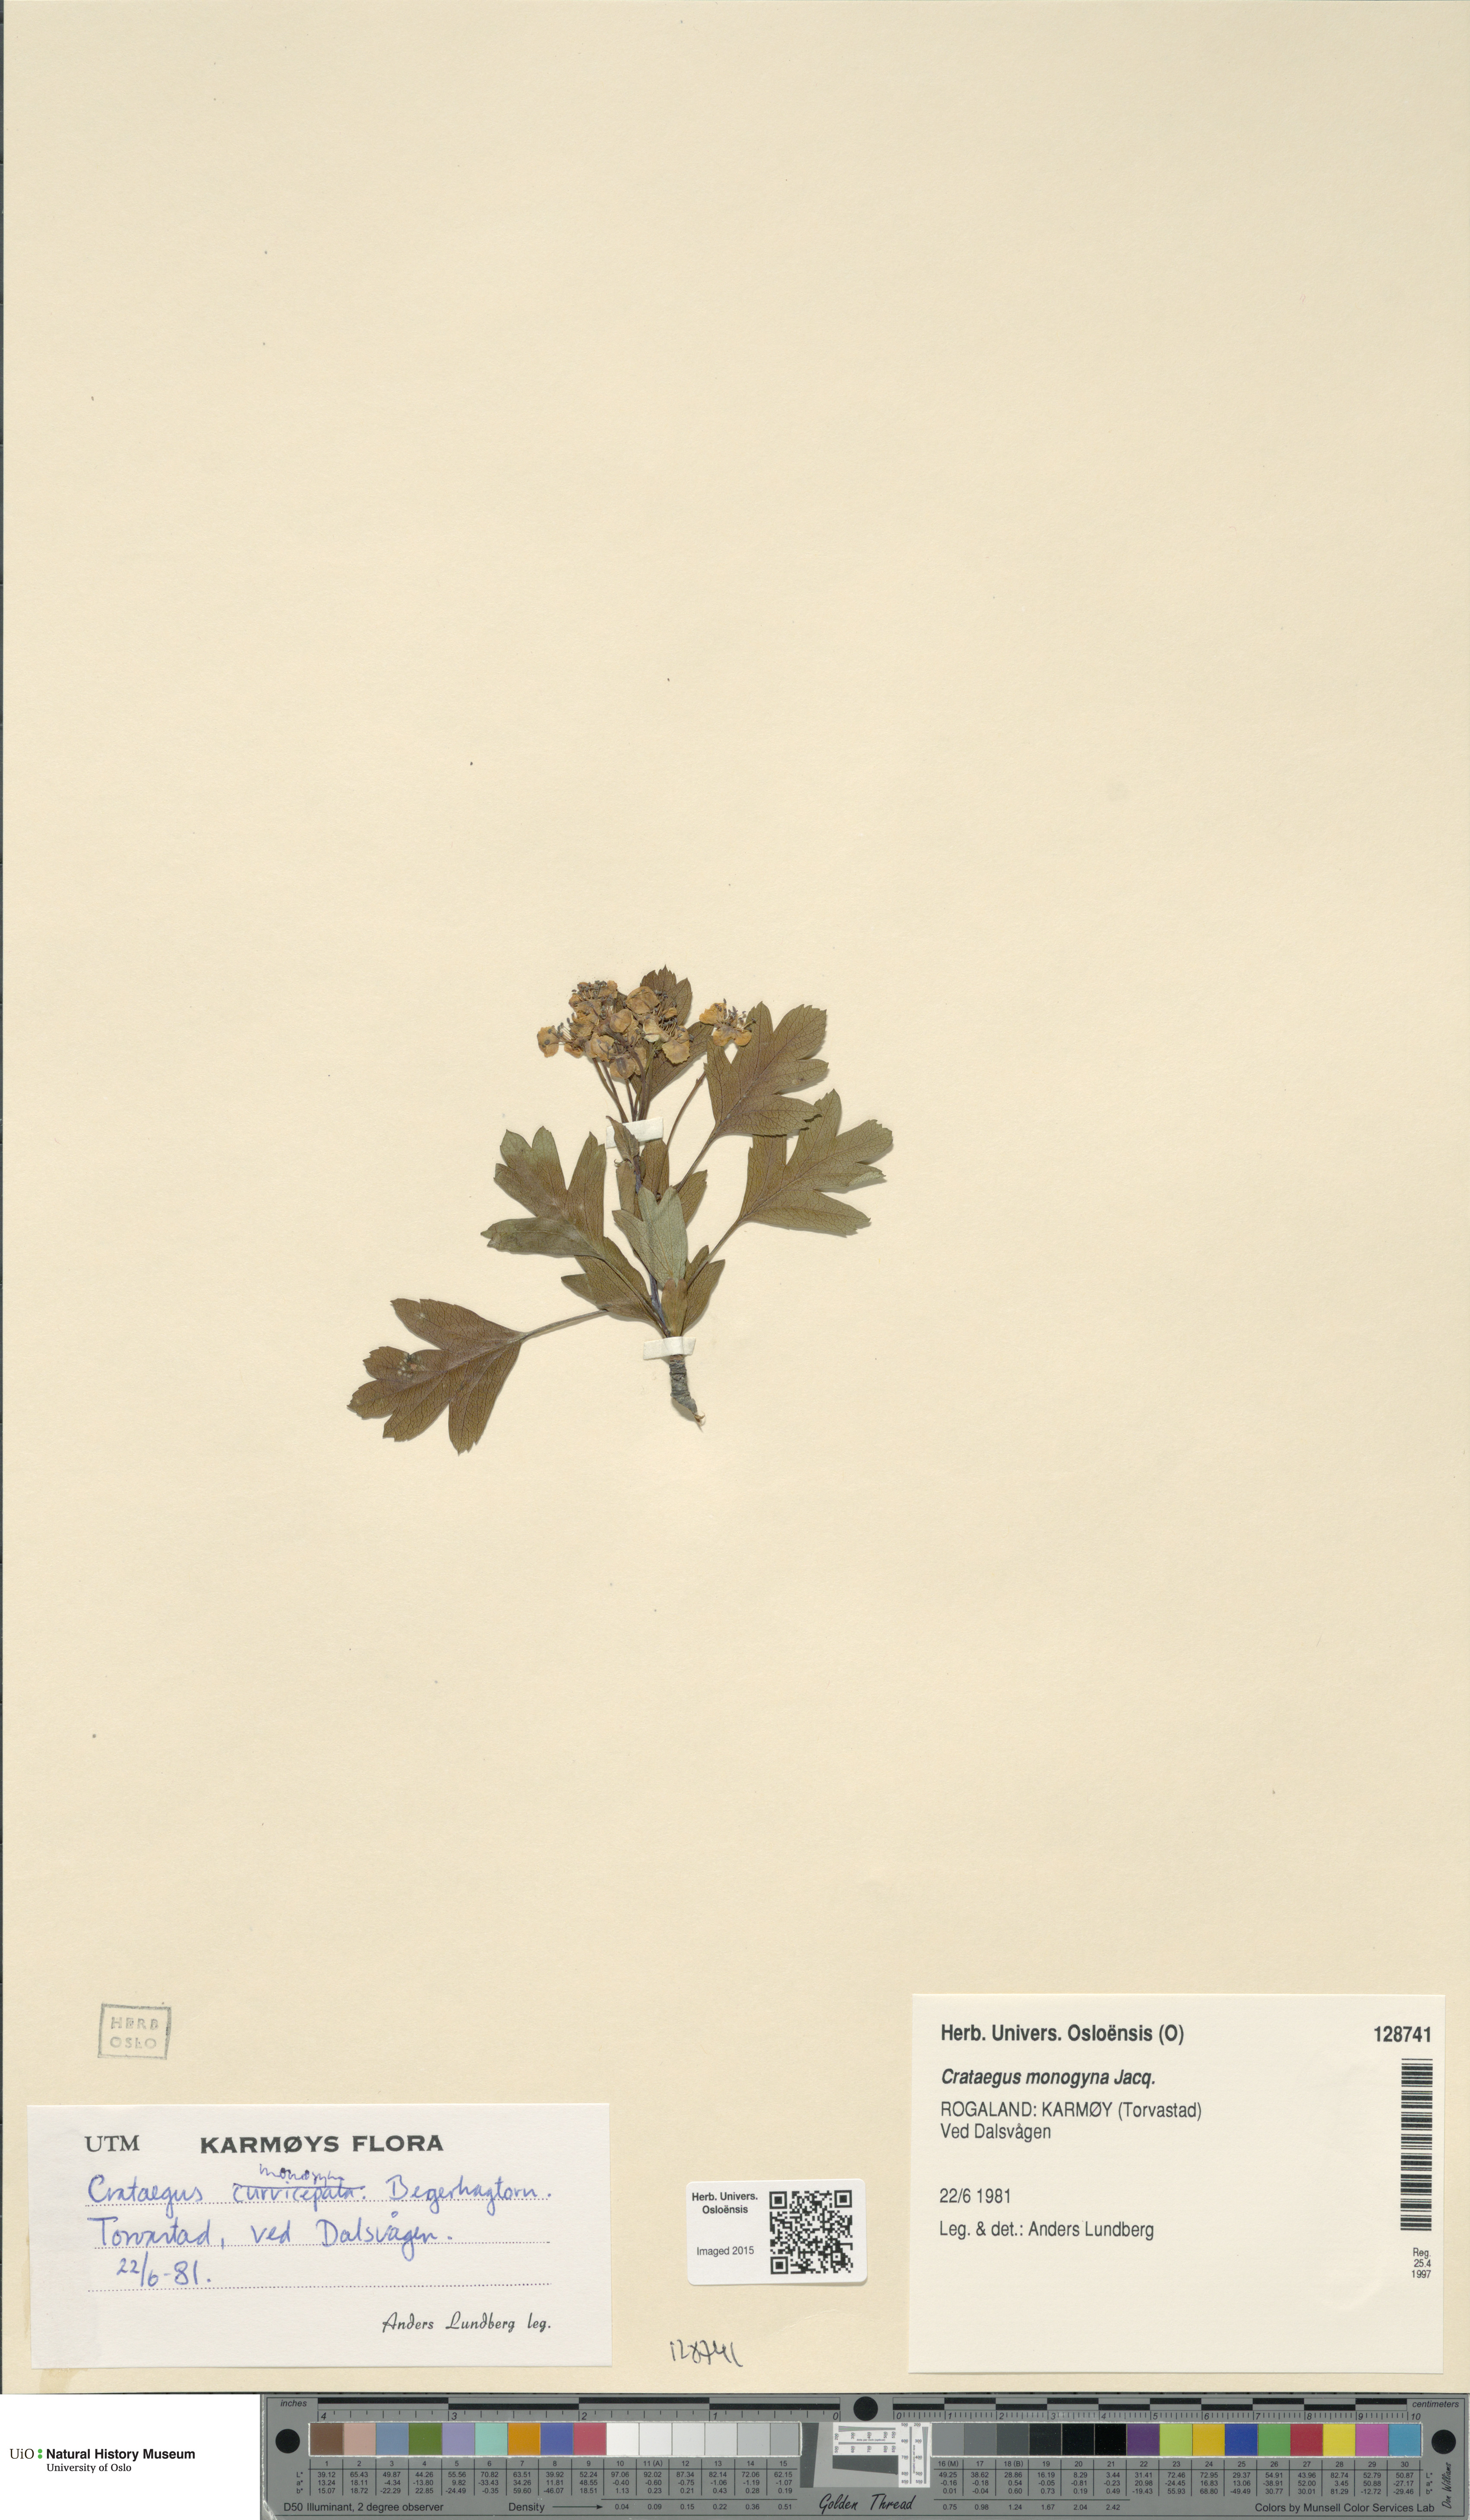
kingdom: Plantae
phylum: Tracheophyta
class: Magnoliopsida
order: Rosales
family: Rosaceae
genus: Crataegus
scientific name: Crataegus monogyna
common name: Hawthorn
